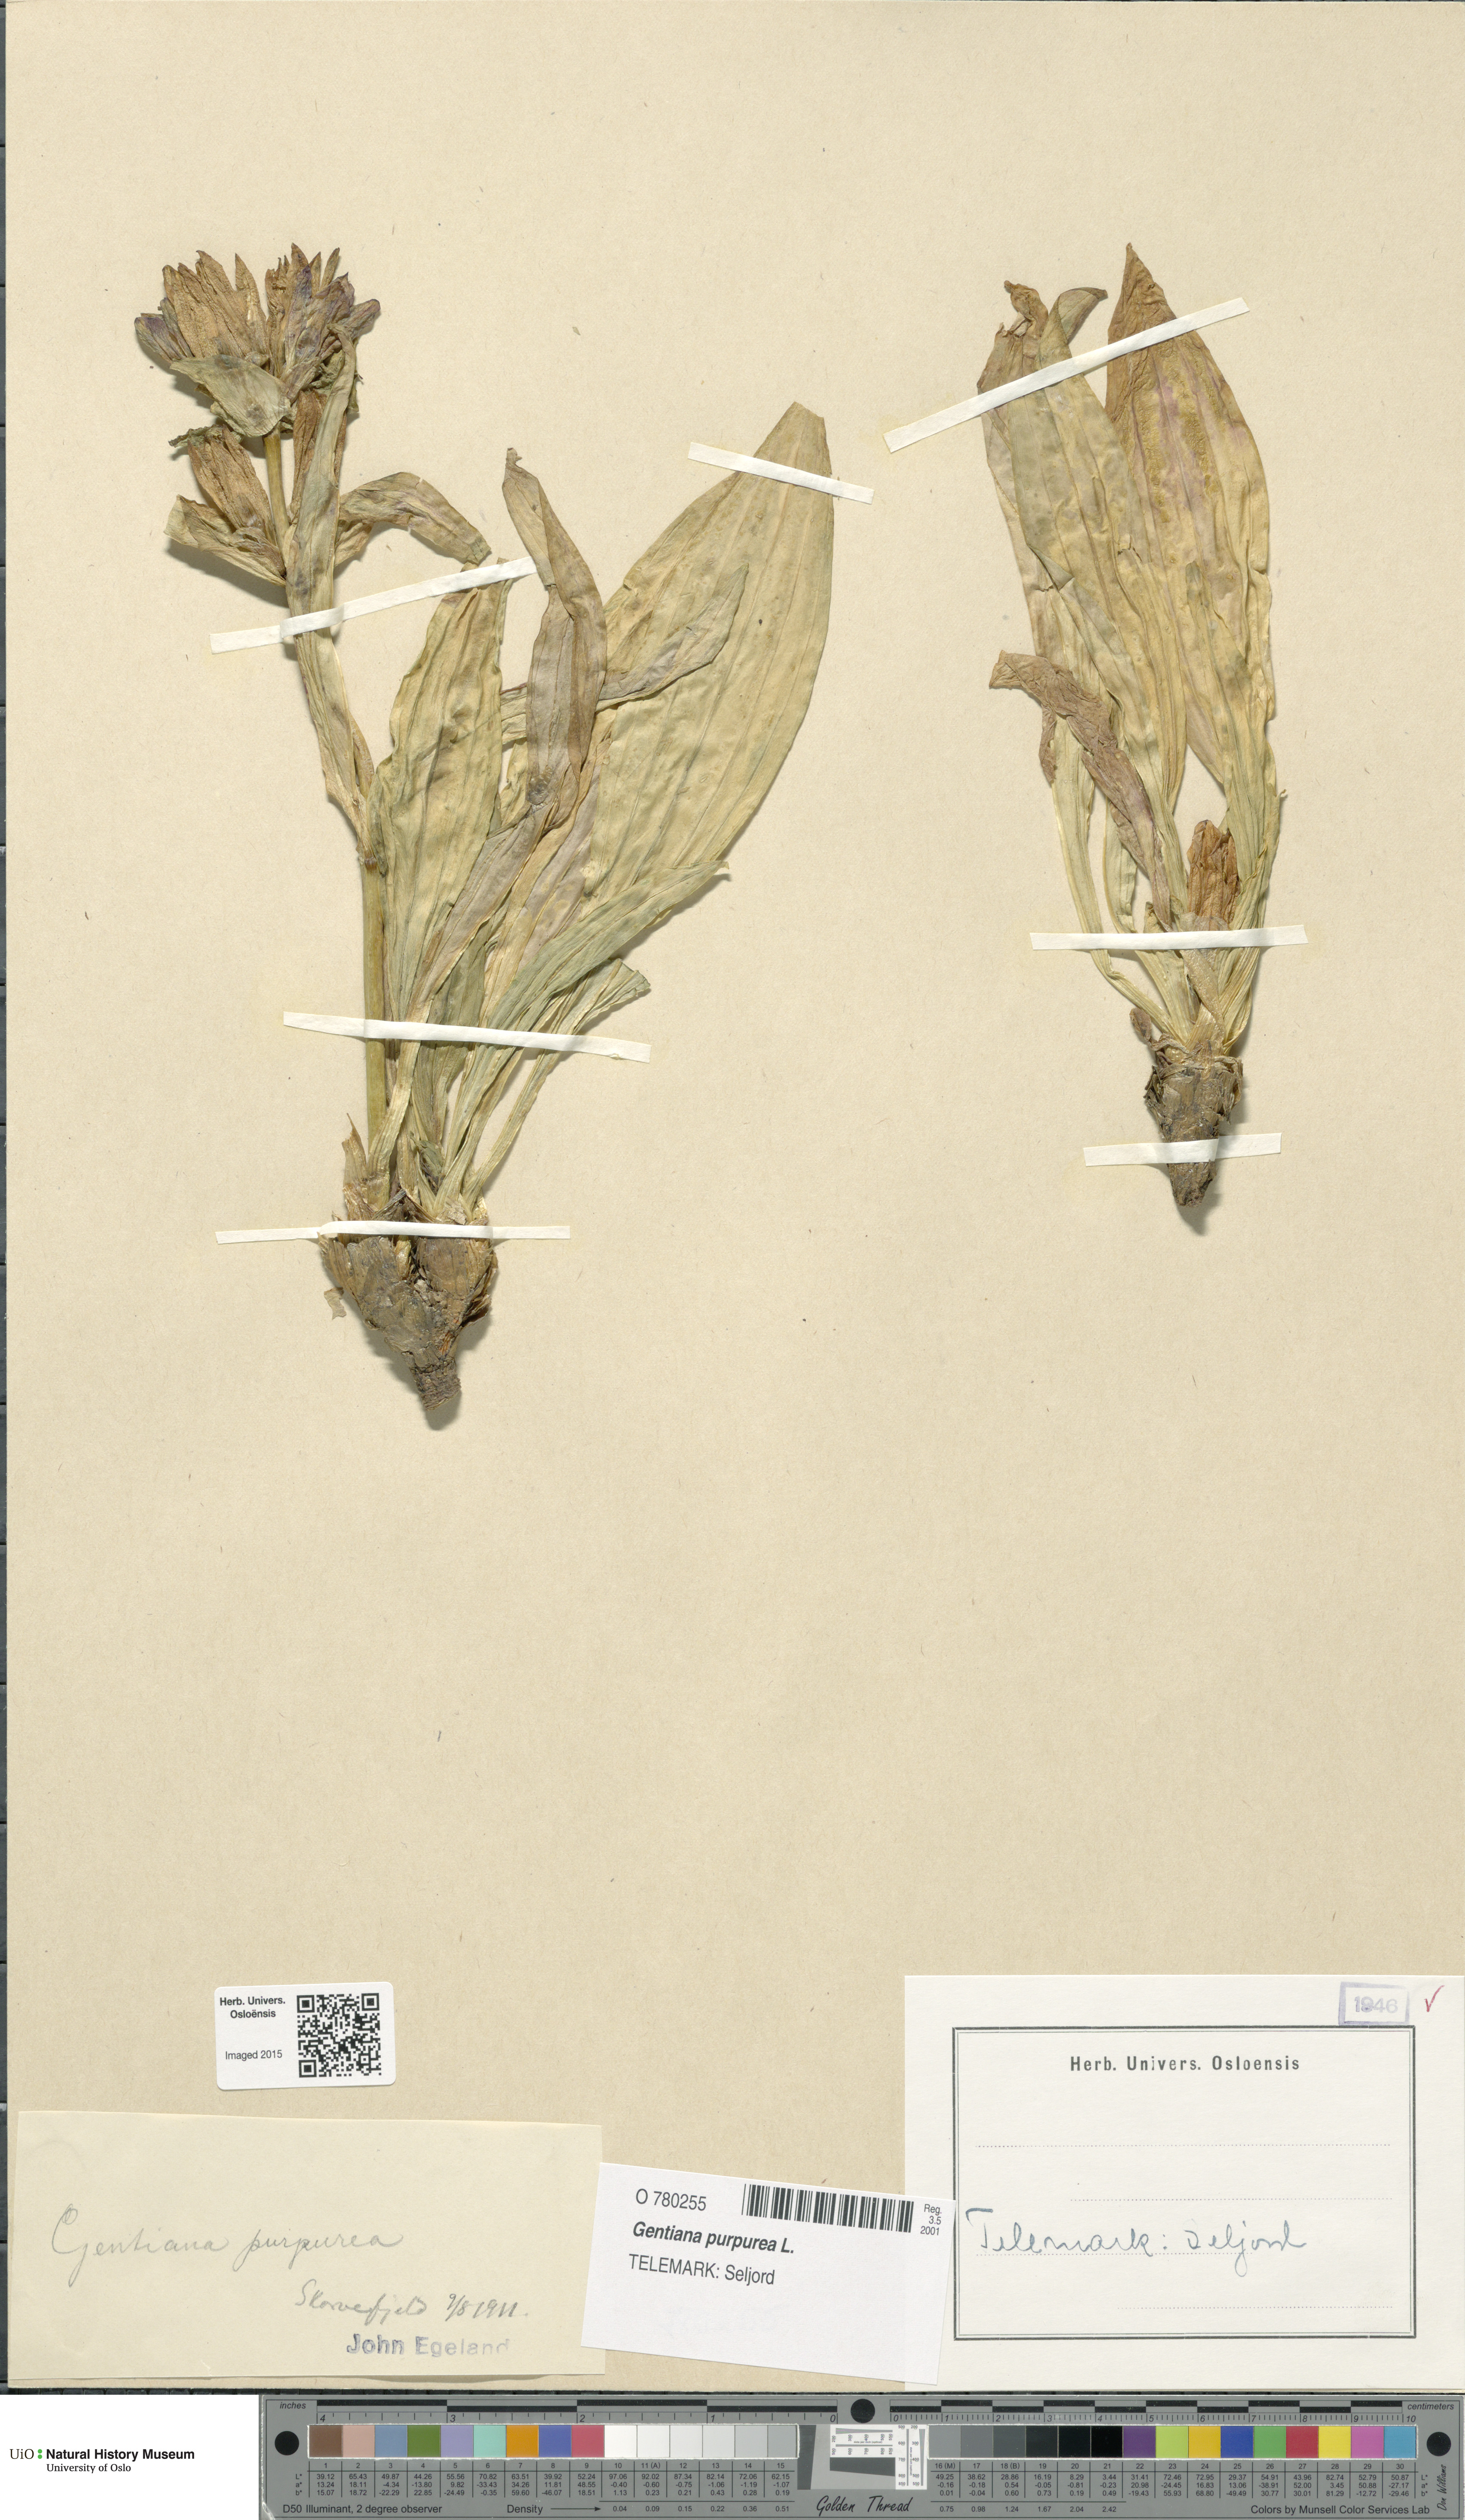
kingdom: Plantae
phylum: Tracheophyta
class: Magnoliopsida
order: Gentianales
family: Gentianaceae
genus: Gentiana
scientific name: Gentiana purpurea
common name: Purple gentian
